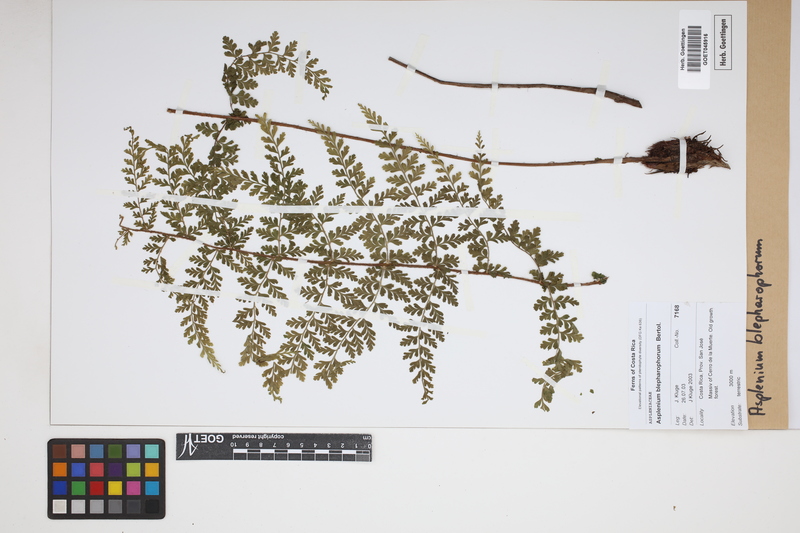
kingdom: Plantae
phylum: Tracheophyta
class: Polypodiopsida
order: Polypodiales
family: Aspleniaceae
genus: Asplenium
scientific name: Asplenium blepharophorum
